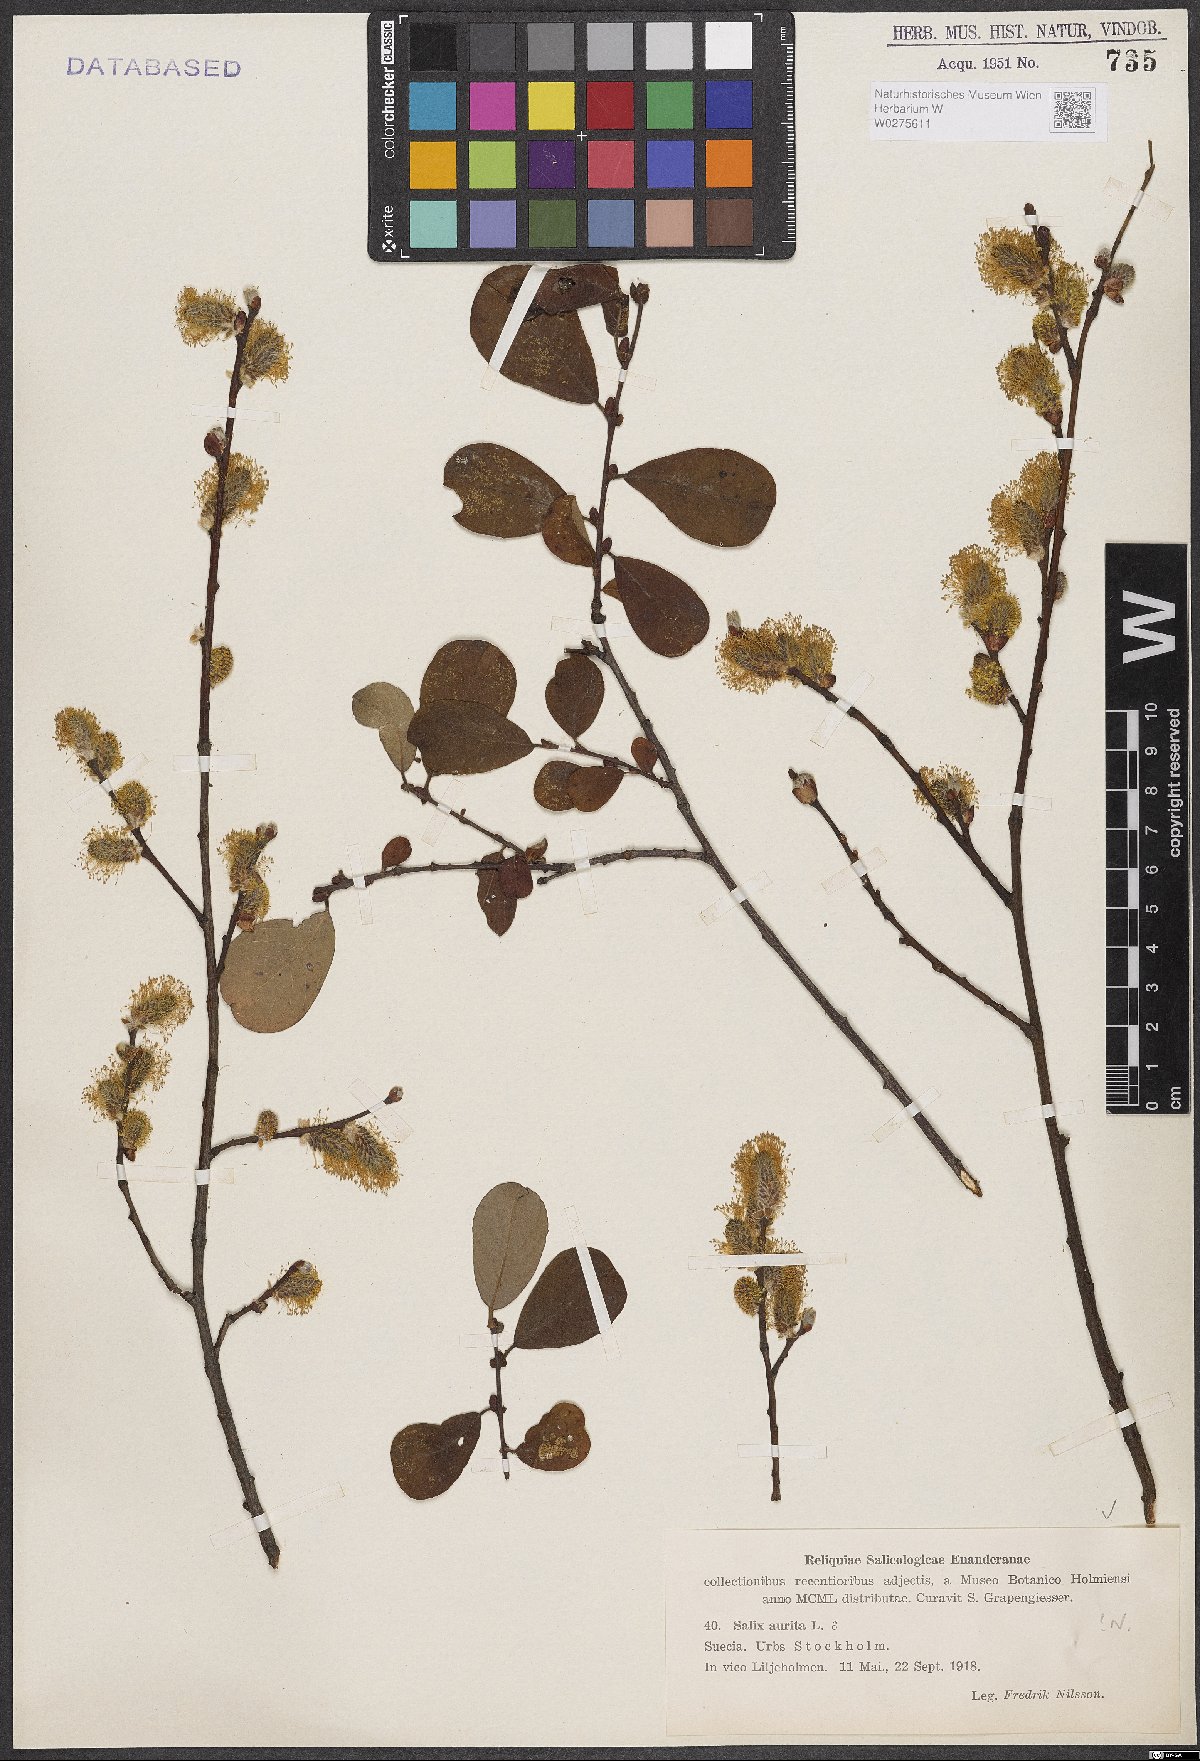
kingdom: Plantae
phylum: Tracheophyta
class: Magnoliopsida
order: Malpighiales
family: Salicaceae
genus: Salix
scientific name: Salix aurita
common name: Eared willow
